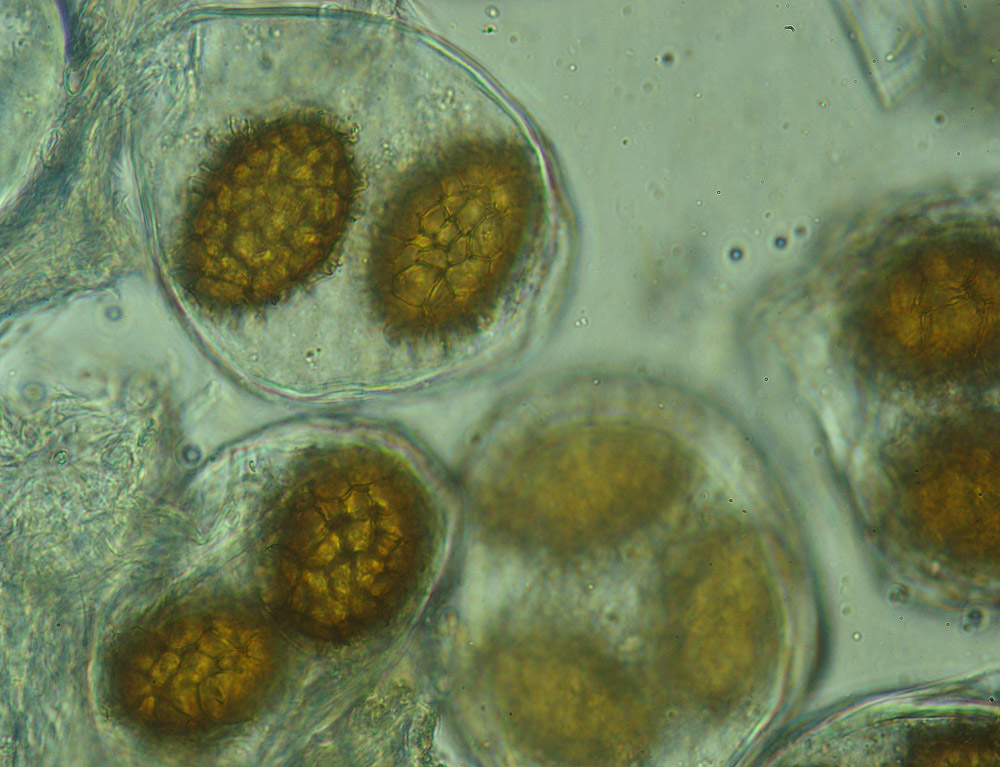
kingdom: Fungi
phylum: Ascomycota
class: Pezizomycetes
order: Pezizales
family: Tuberaceae
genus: Tuber
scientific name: Tuber macrosporum
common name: storsporet trøffel
